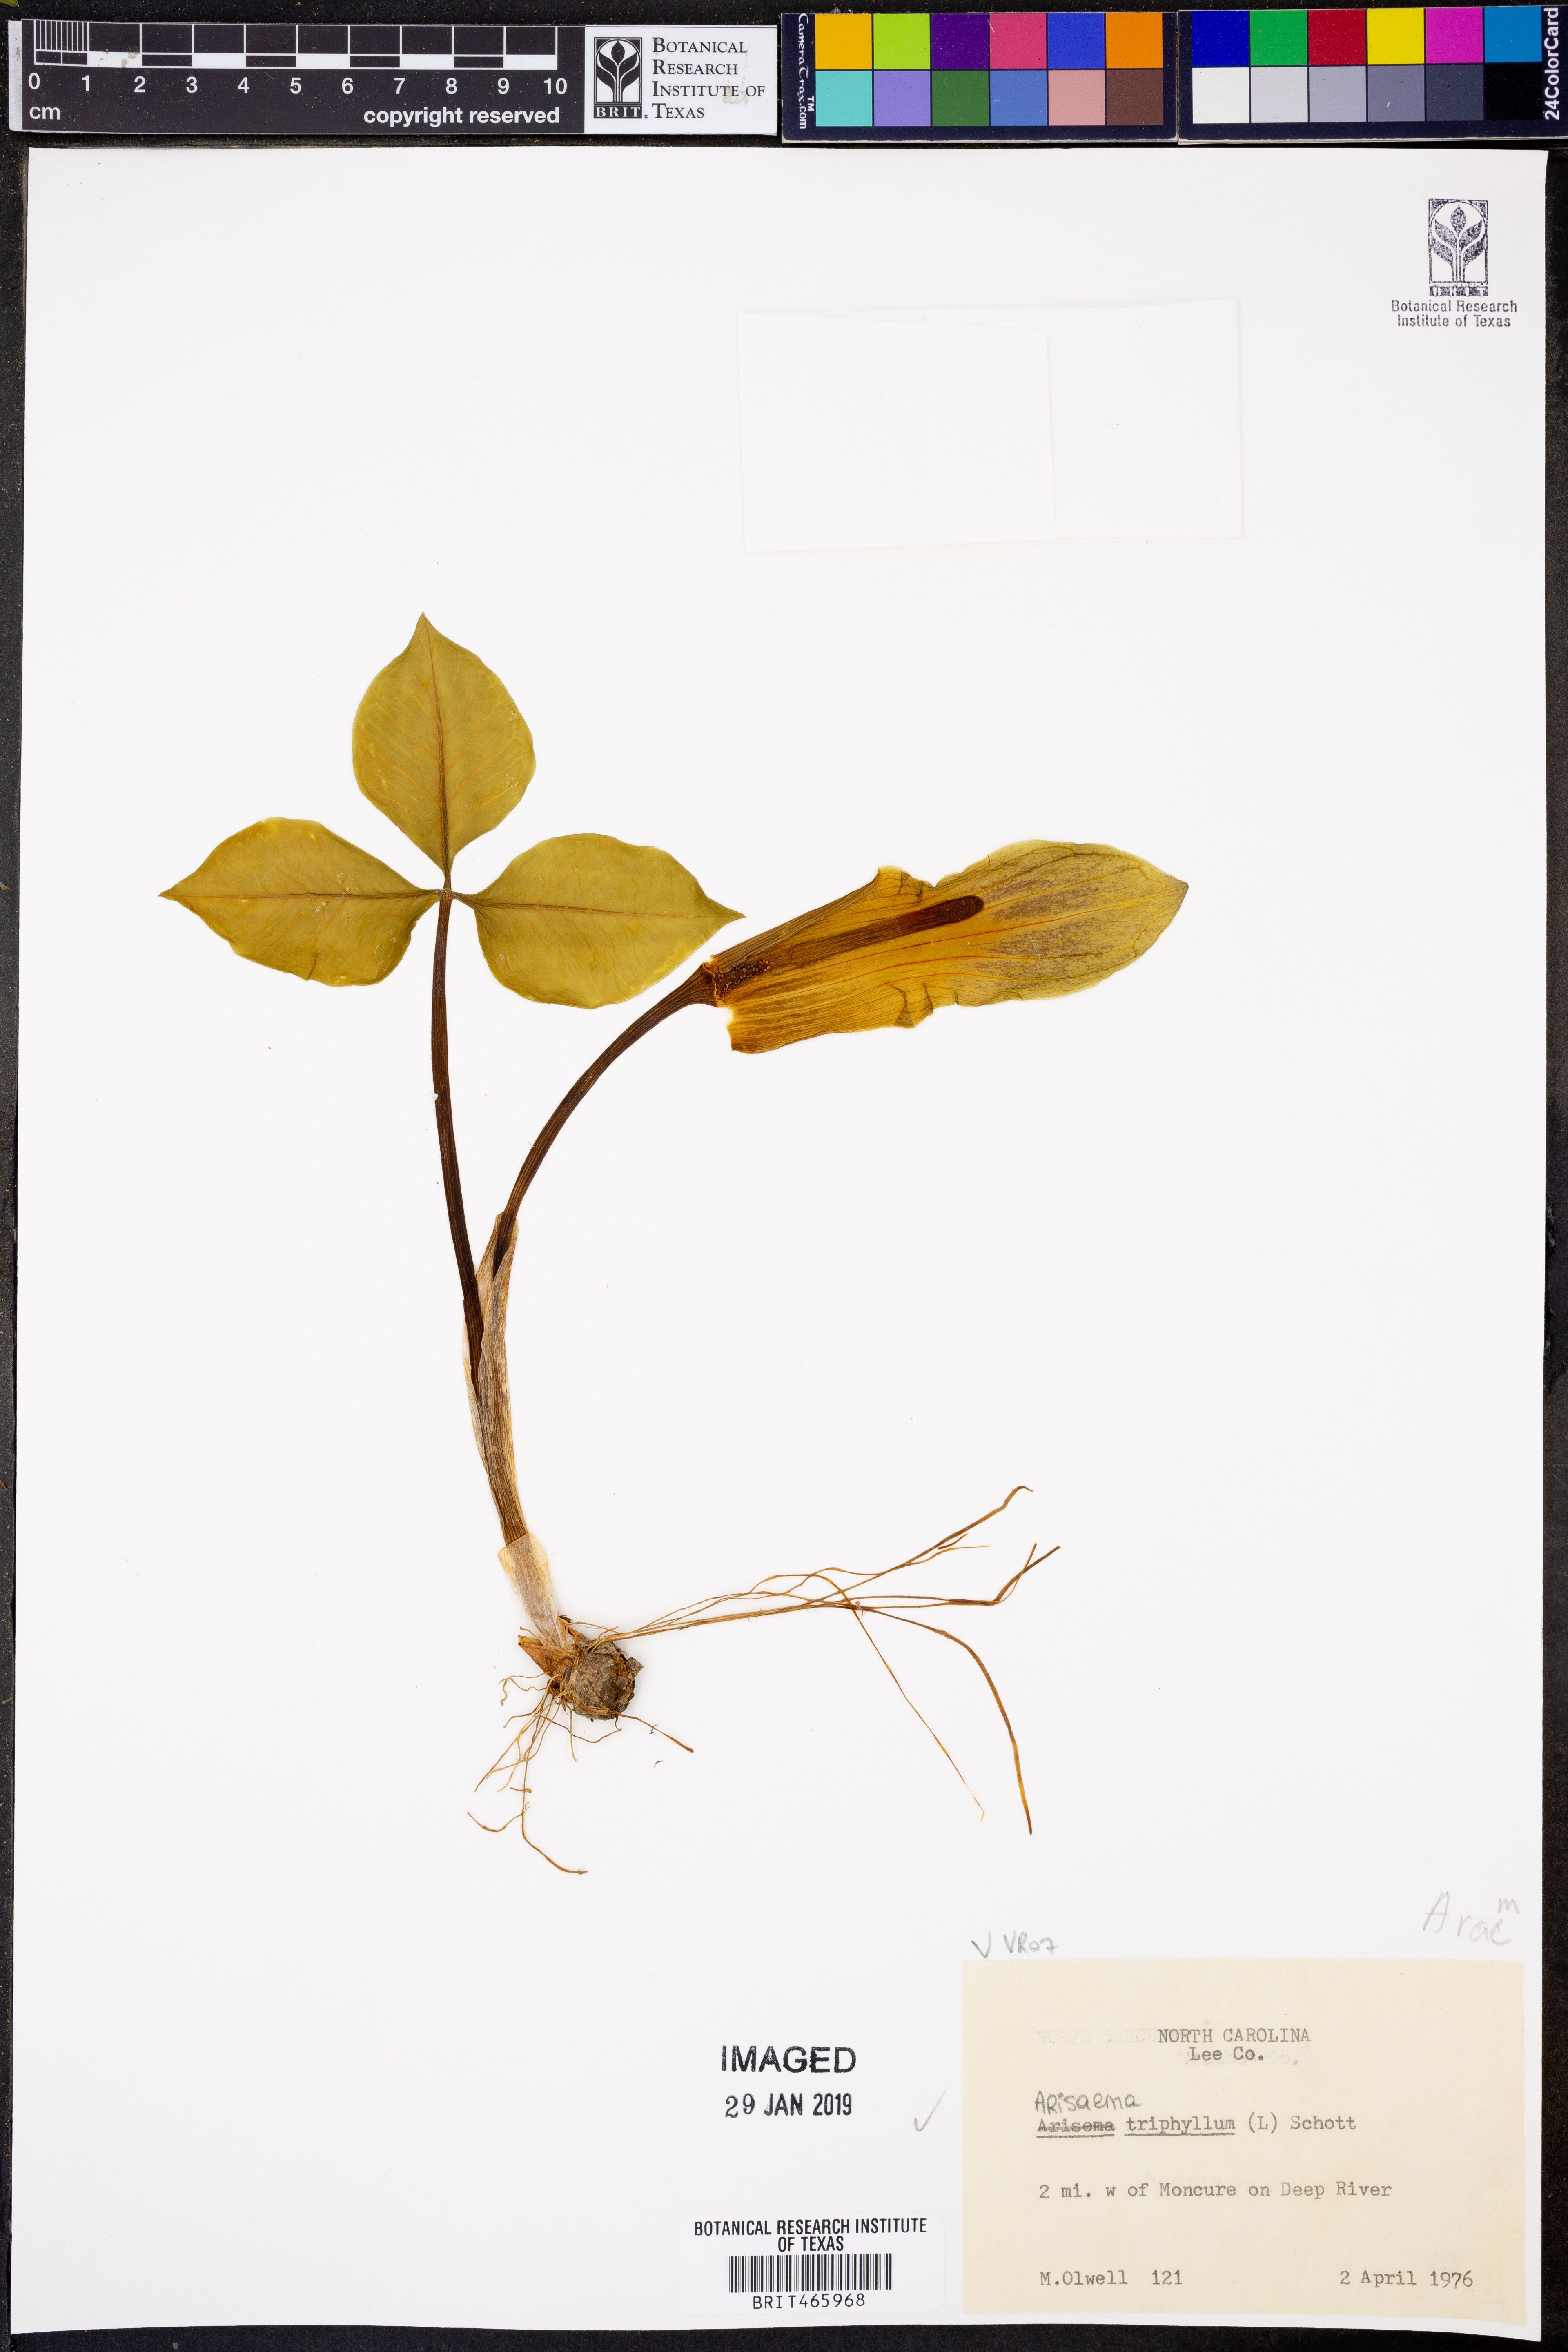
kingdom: Plantae
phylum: Tracheophyta
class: Liliopsida
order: Alismatales
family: Araceae
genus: Arisaema
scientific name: Arisaema triphyllum
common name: Jack-in-the-pulpit
